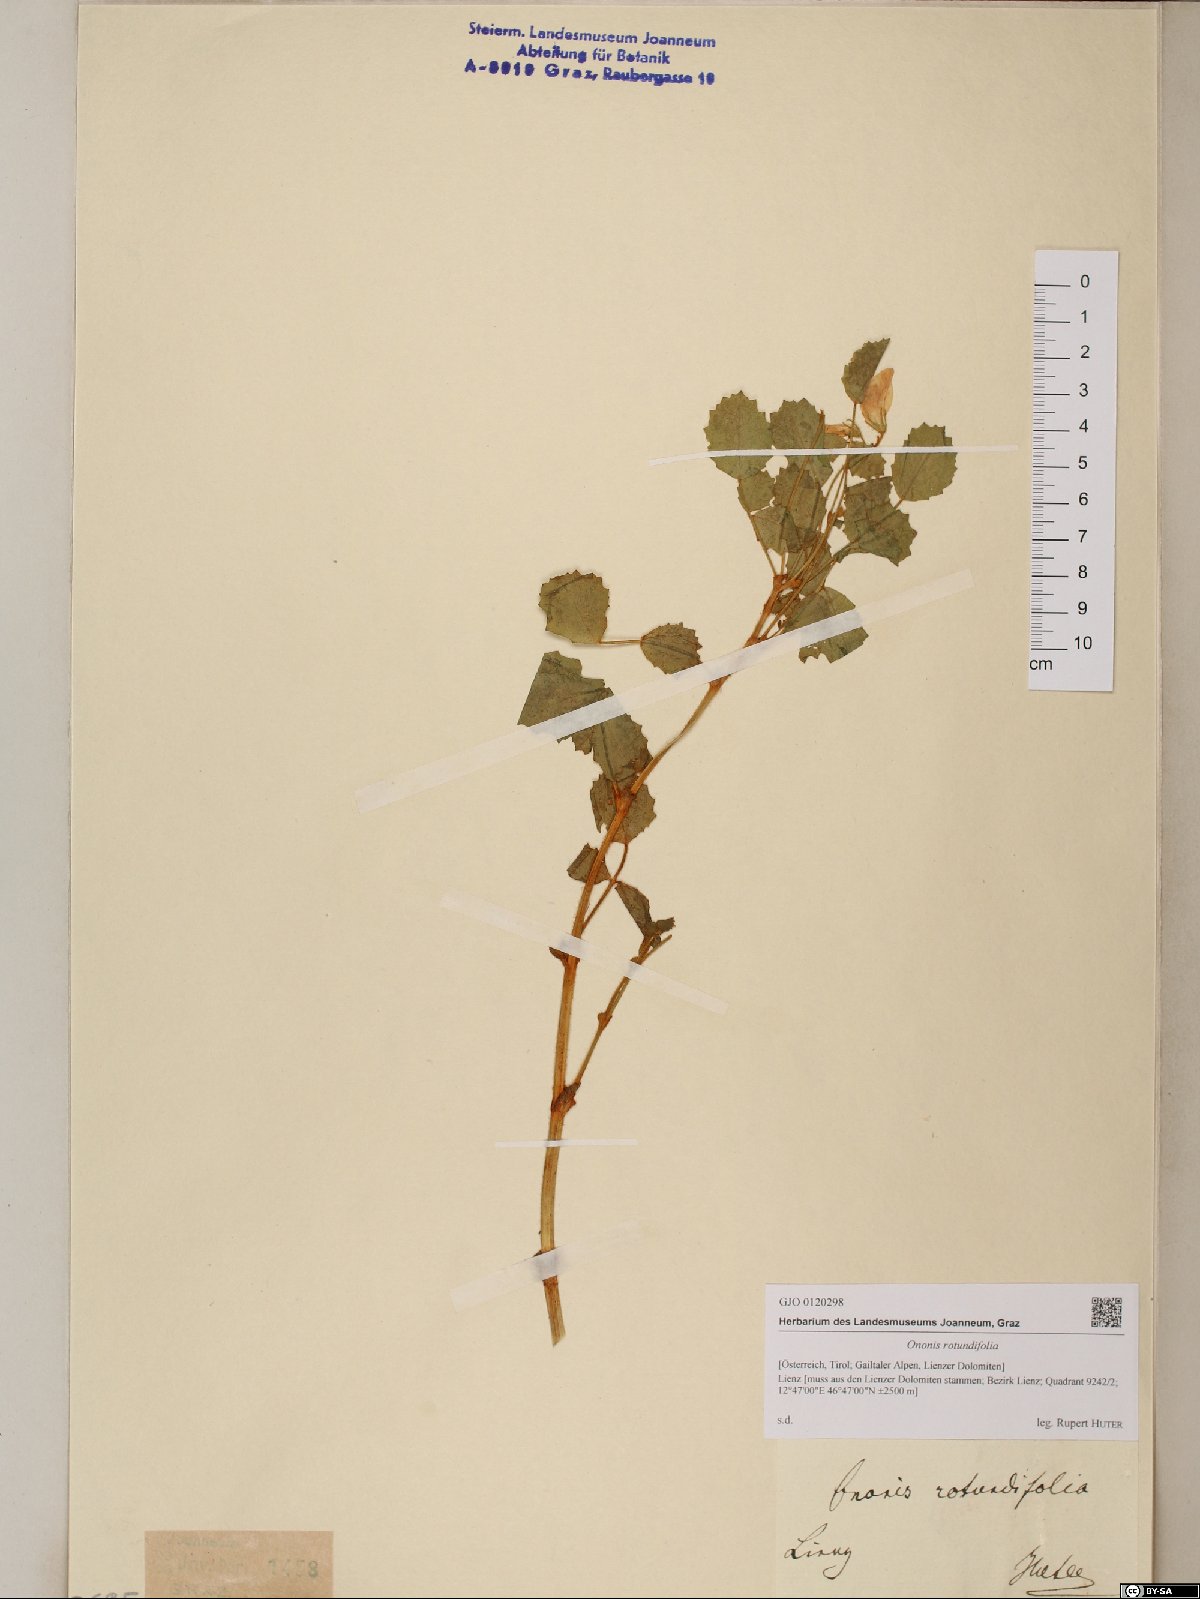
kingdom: Plantae
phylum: Tracheophyta
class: Magnoliopsida
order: Fabales
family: Fabaceae
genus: Ononis
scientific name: Ononis rotundifolia
